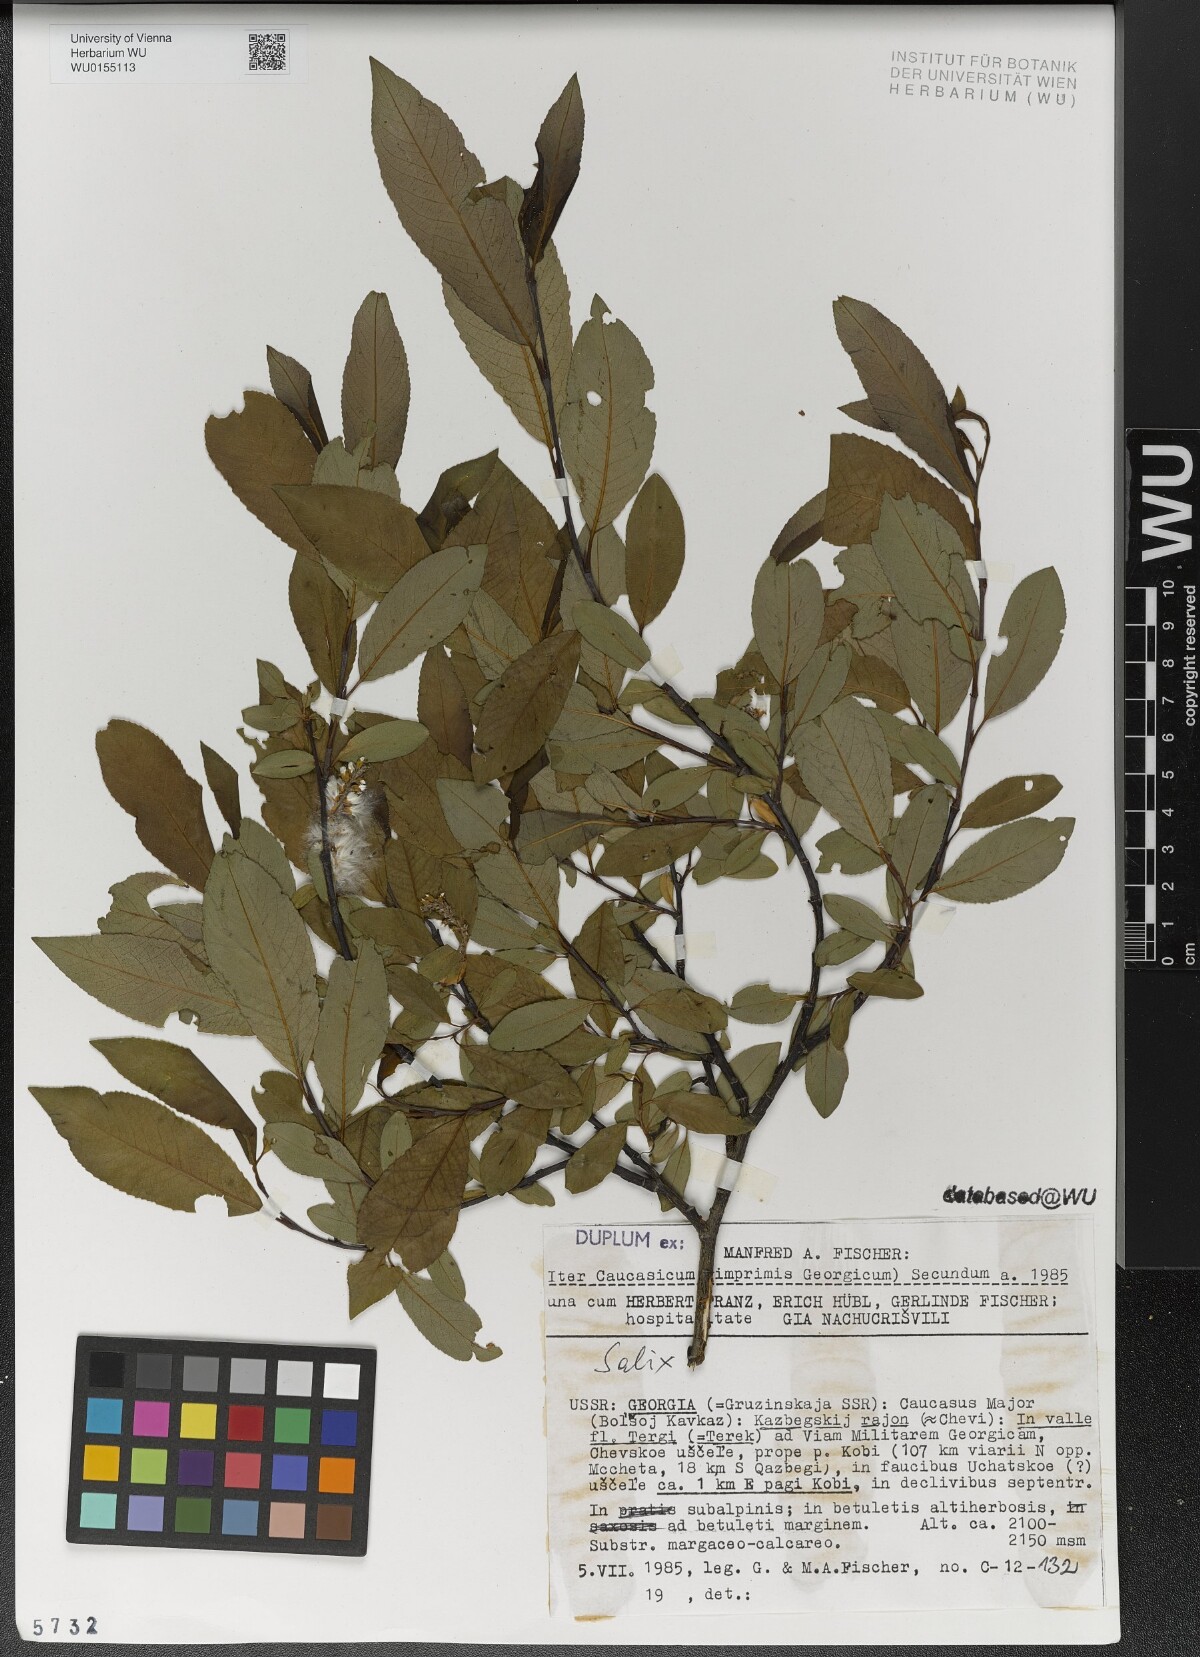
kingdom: Plantae
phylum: Tracheophyta
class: Magnoliopsida
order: Malpighiales
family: Salicaceae
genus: Salix
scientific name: Salix
